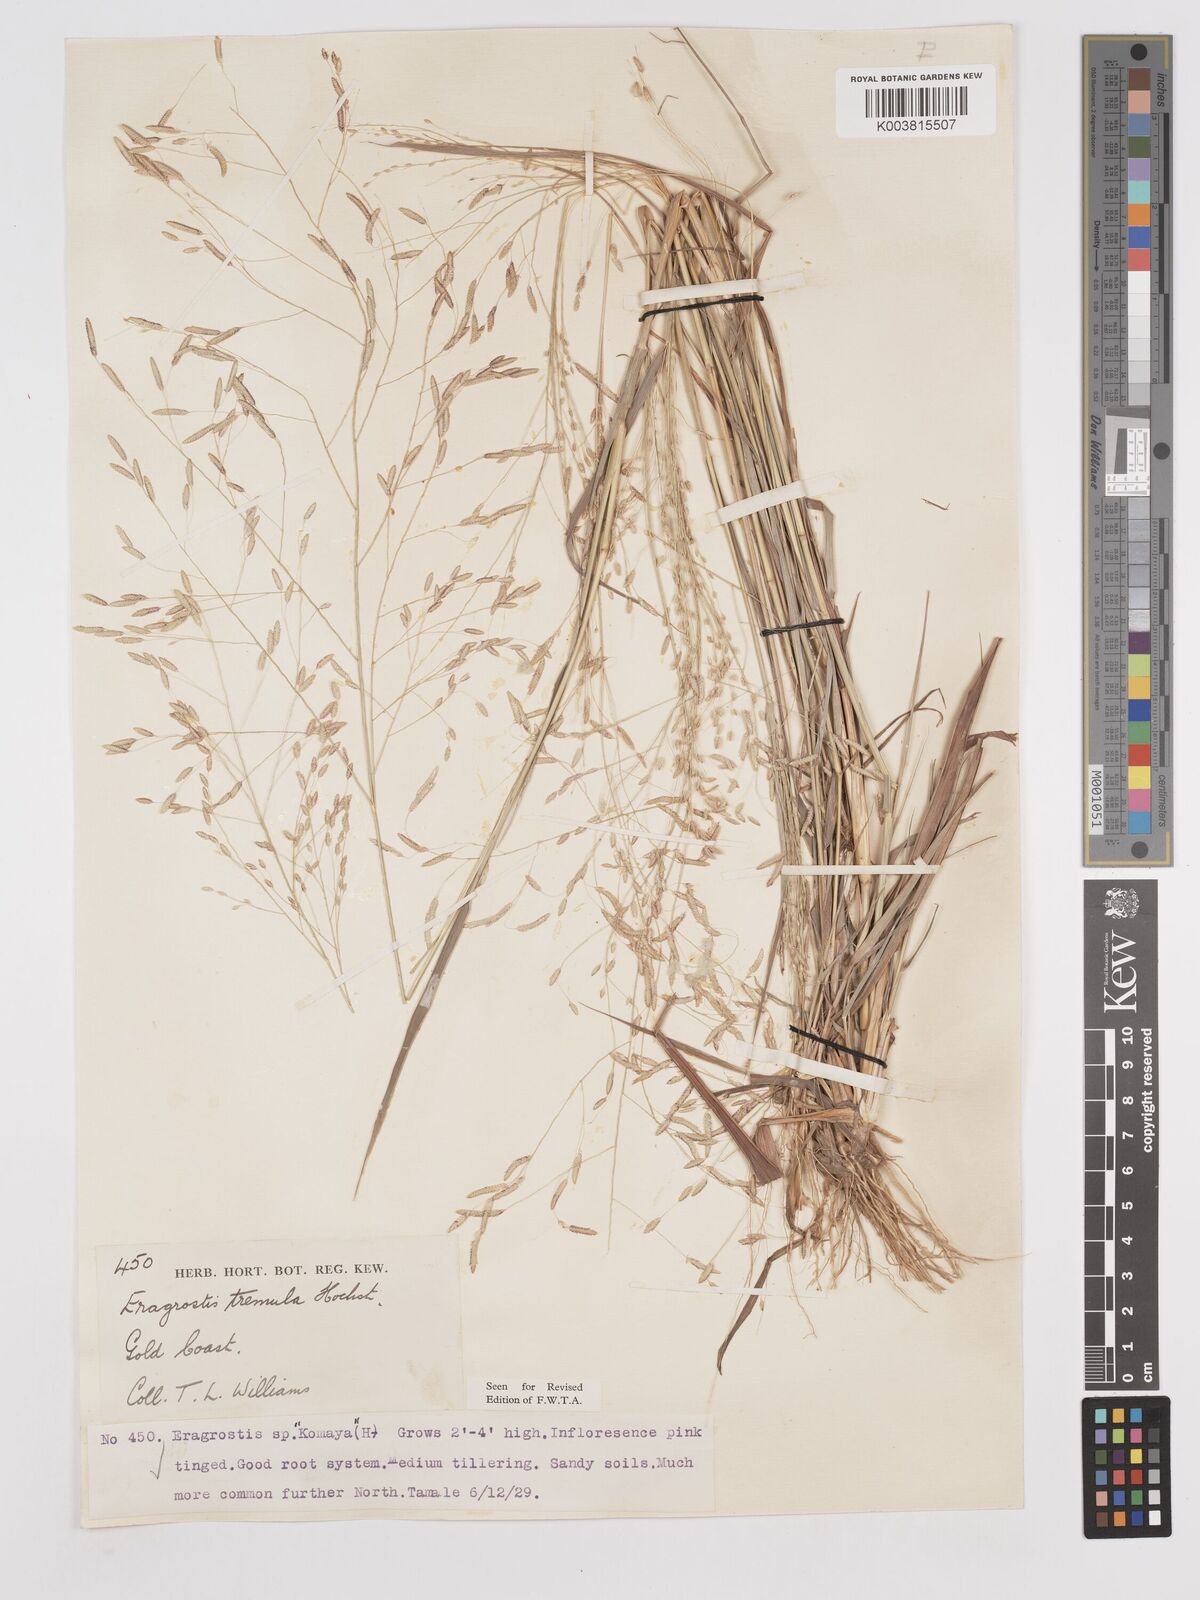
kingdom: Plantae
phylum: Tracheophyta
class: Liliopsida
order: Poales
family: Poaceae
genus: Eragrostis
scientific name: Eragrostis tremula
